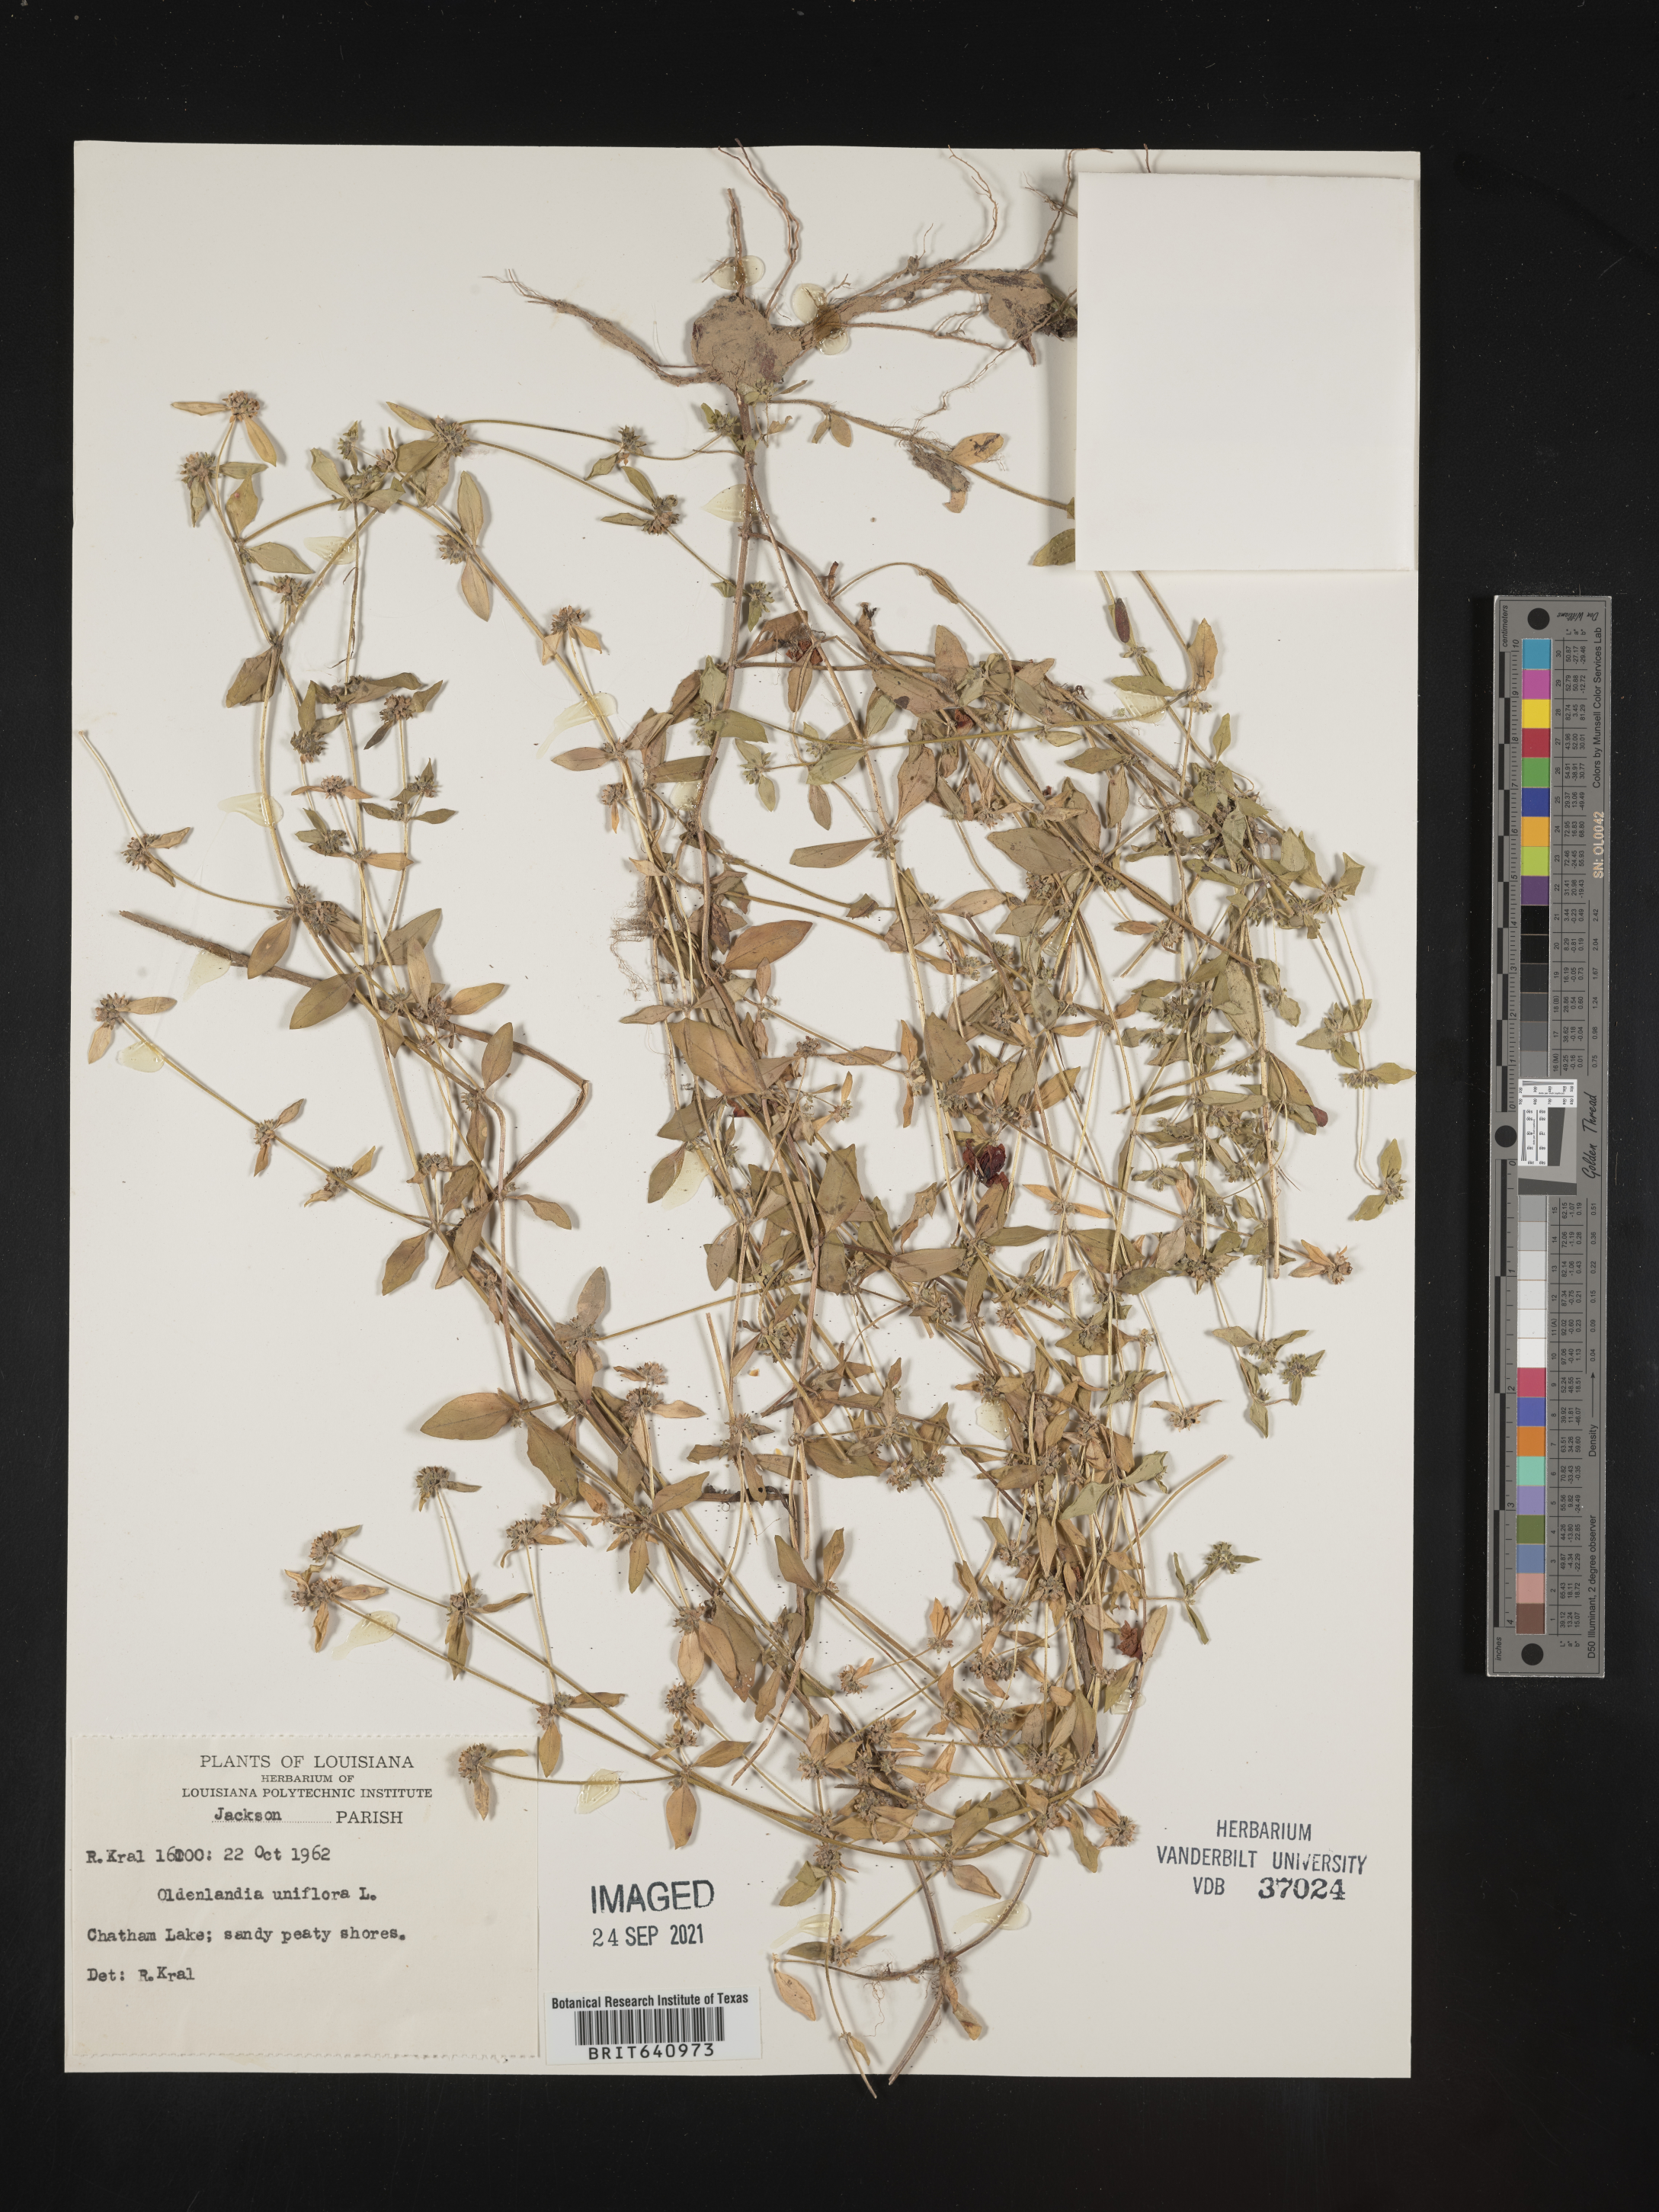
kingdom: Plantae
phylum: Tracheophyta
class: Magnoliopsida
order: Gentianales
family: Rubiaceae
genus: Edrastima
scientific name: Edrastima uniflora
